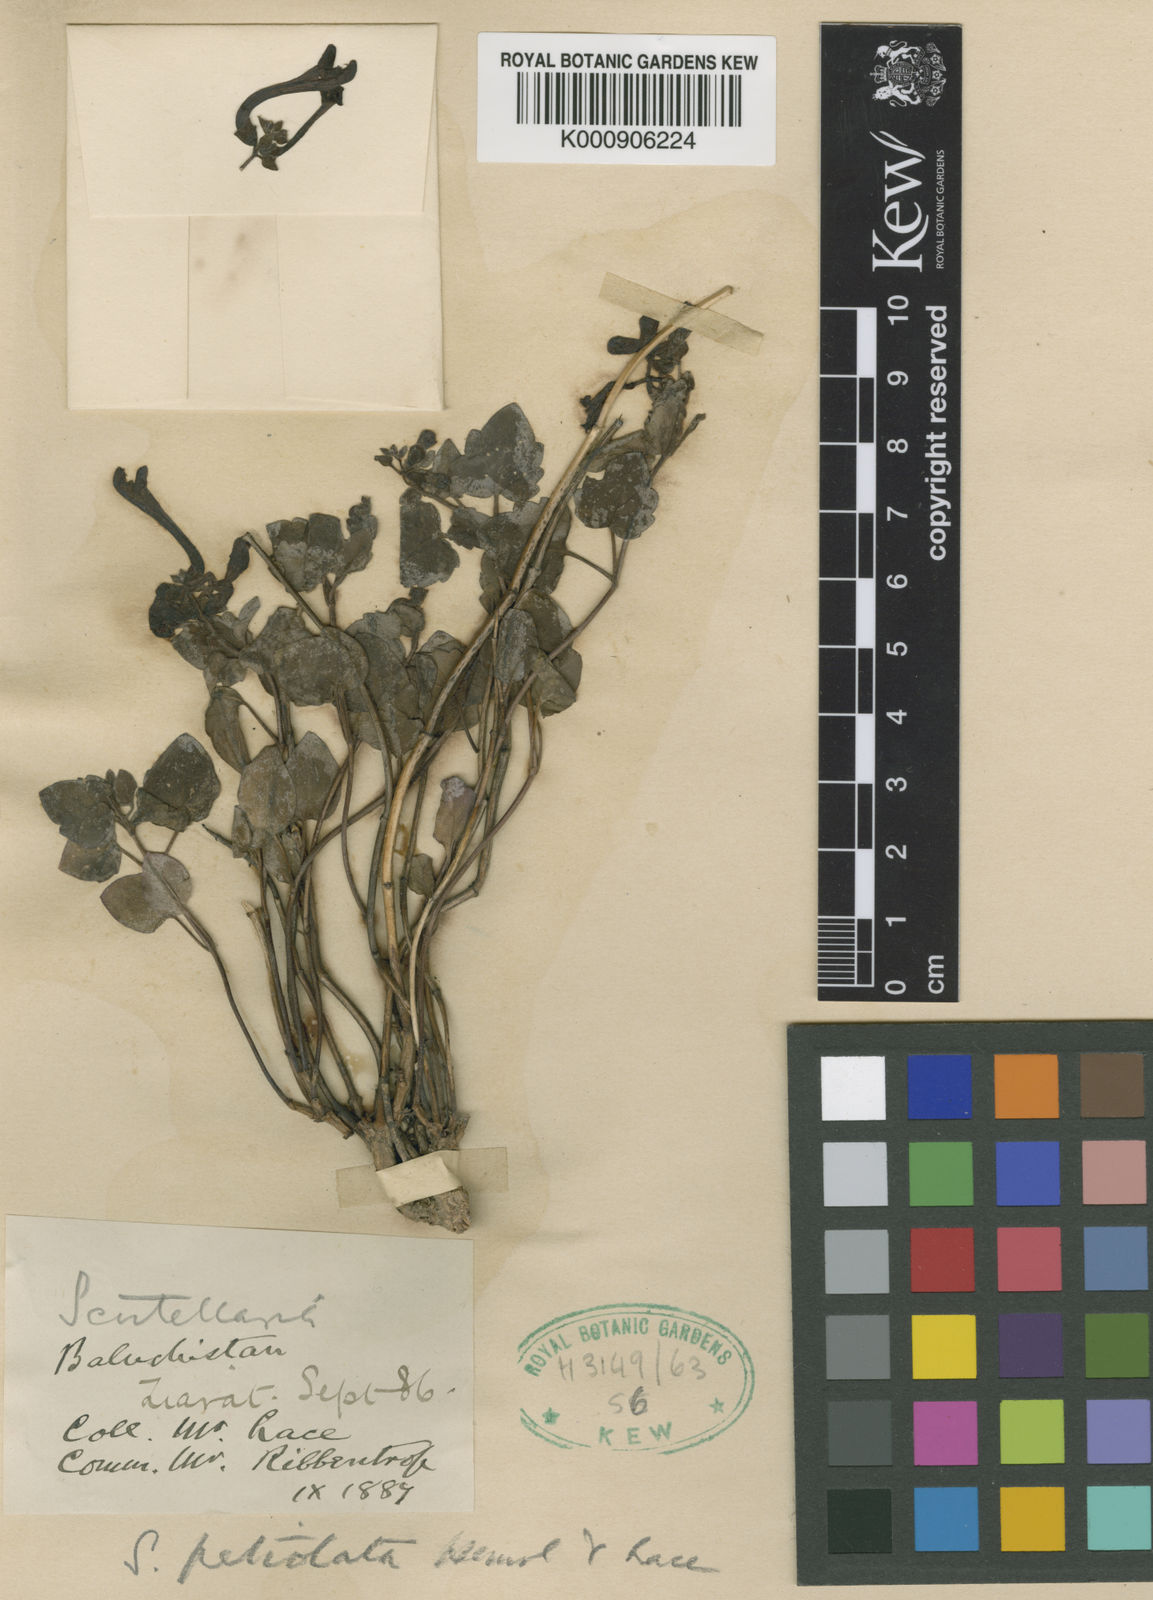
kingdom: Plantae
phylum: Tracheophyta
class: Magnoliopsida
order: Lamiales
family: Lamiaceae
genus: Scutellaria
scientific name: Scutellaria petiolata
